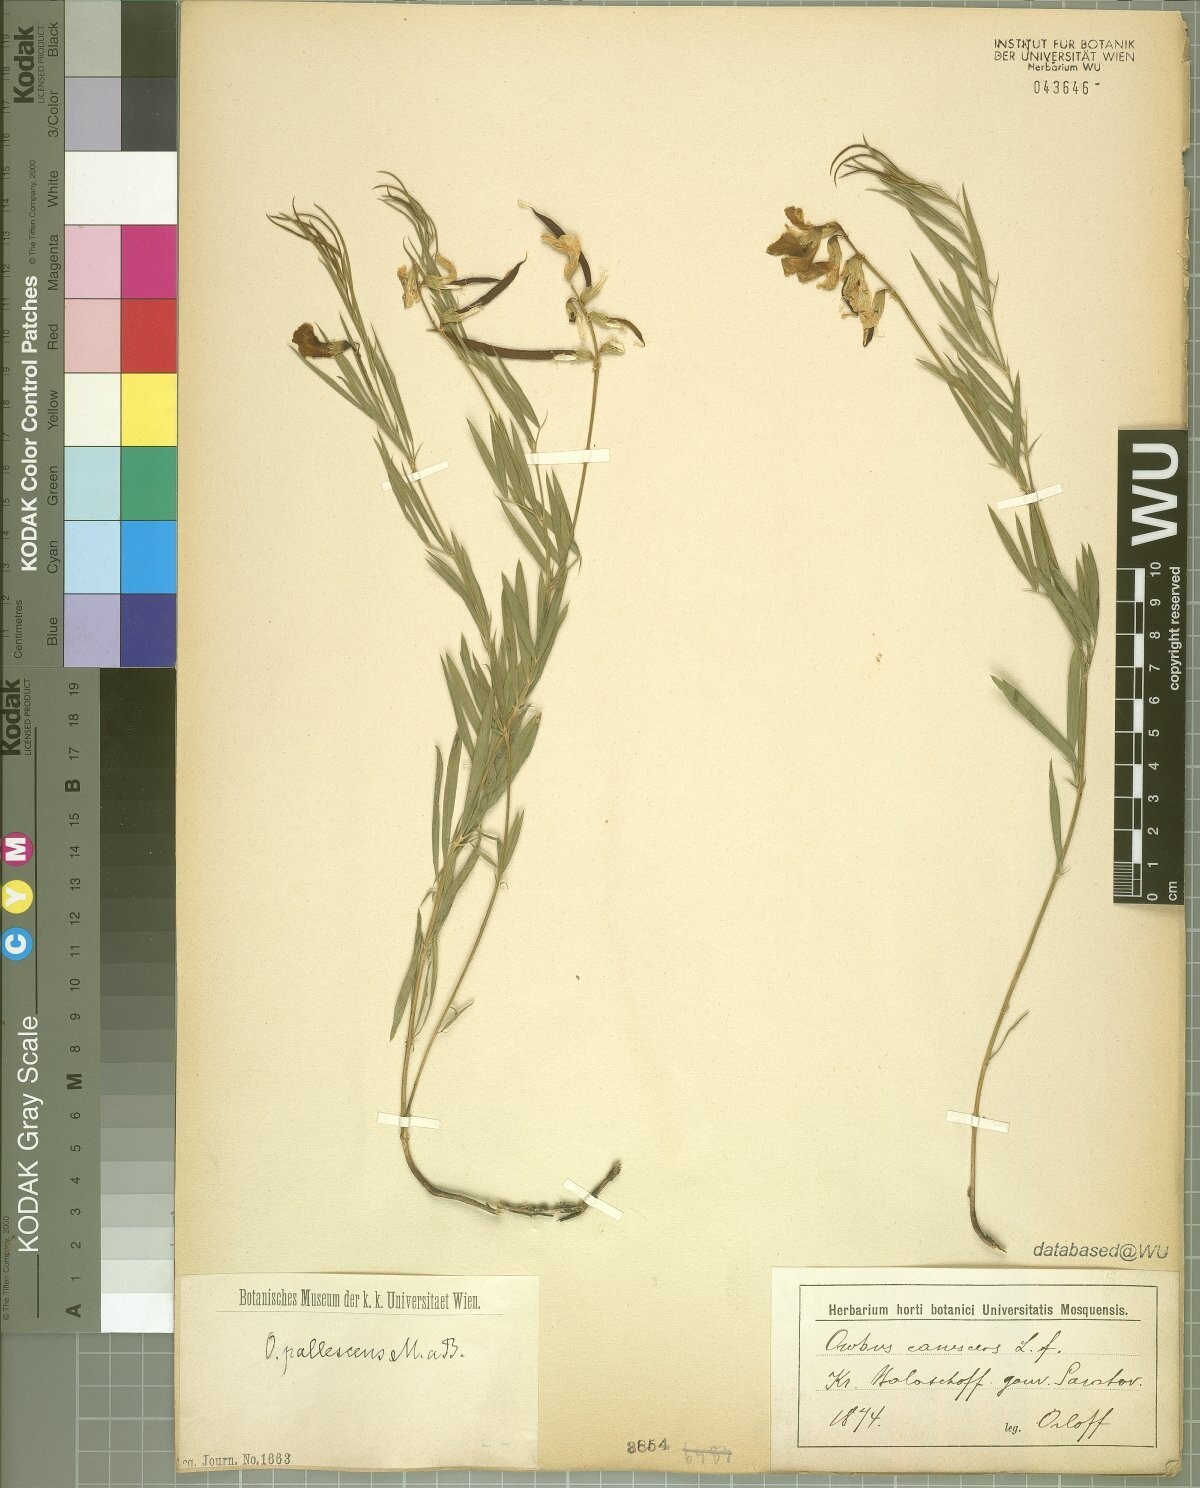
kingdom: Plantae
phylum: Tracheophyta
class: Magnoliopsida
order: Fabales
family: Fabaceae
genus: Lathyrus
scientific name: Lathyrus pallescens
